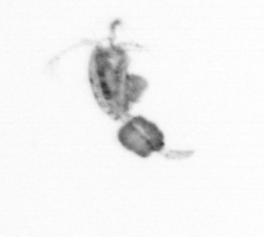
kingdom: Animalia
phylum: Arthropoda
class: Copepoda
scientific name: Copepoda
